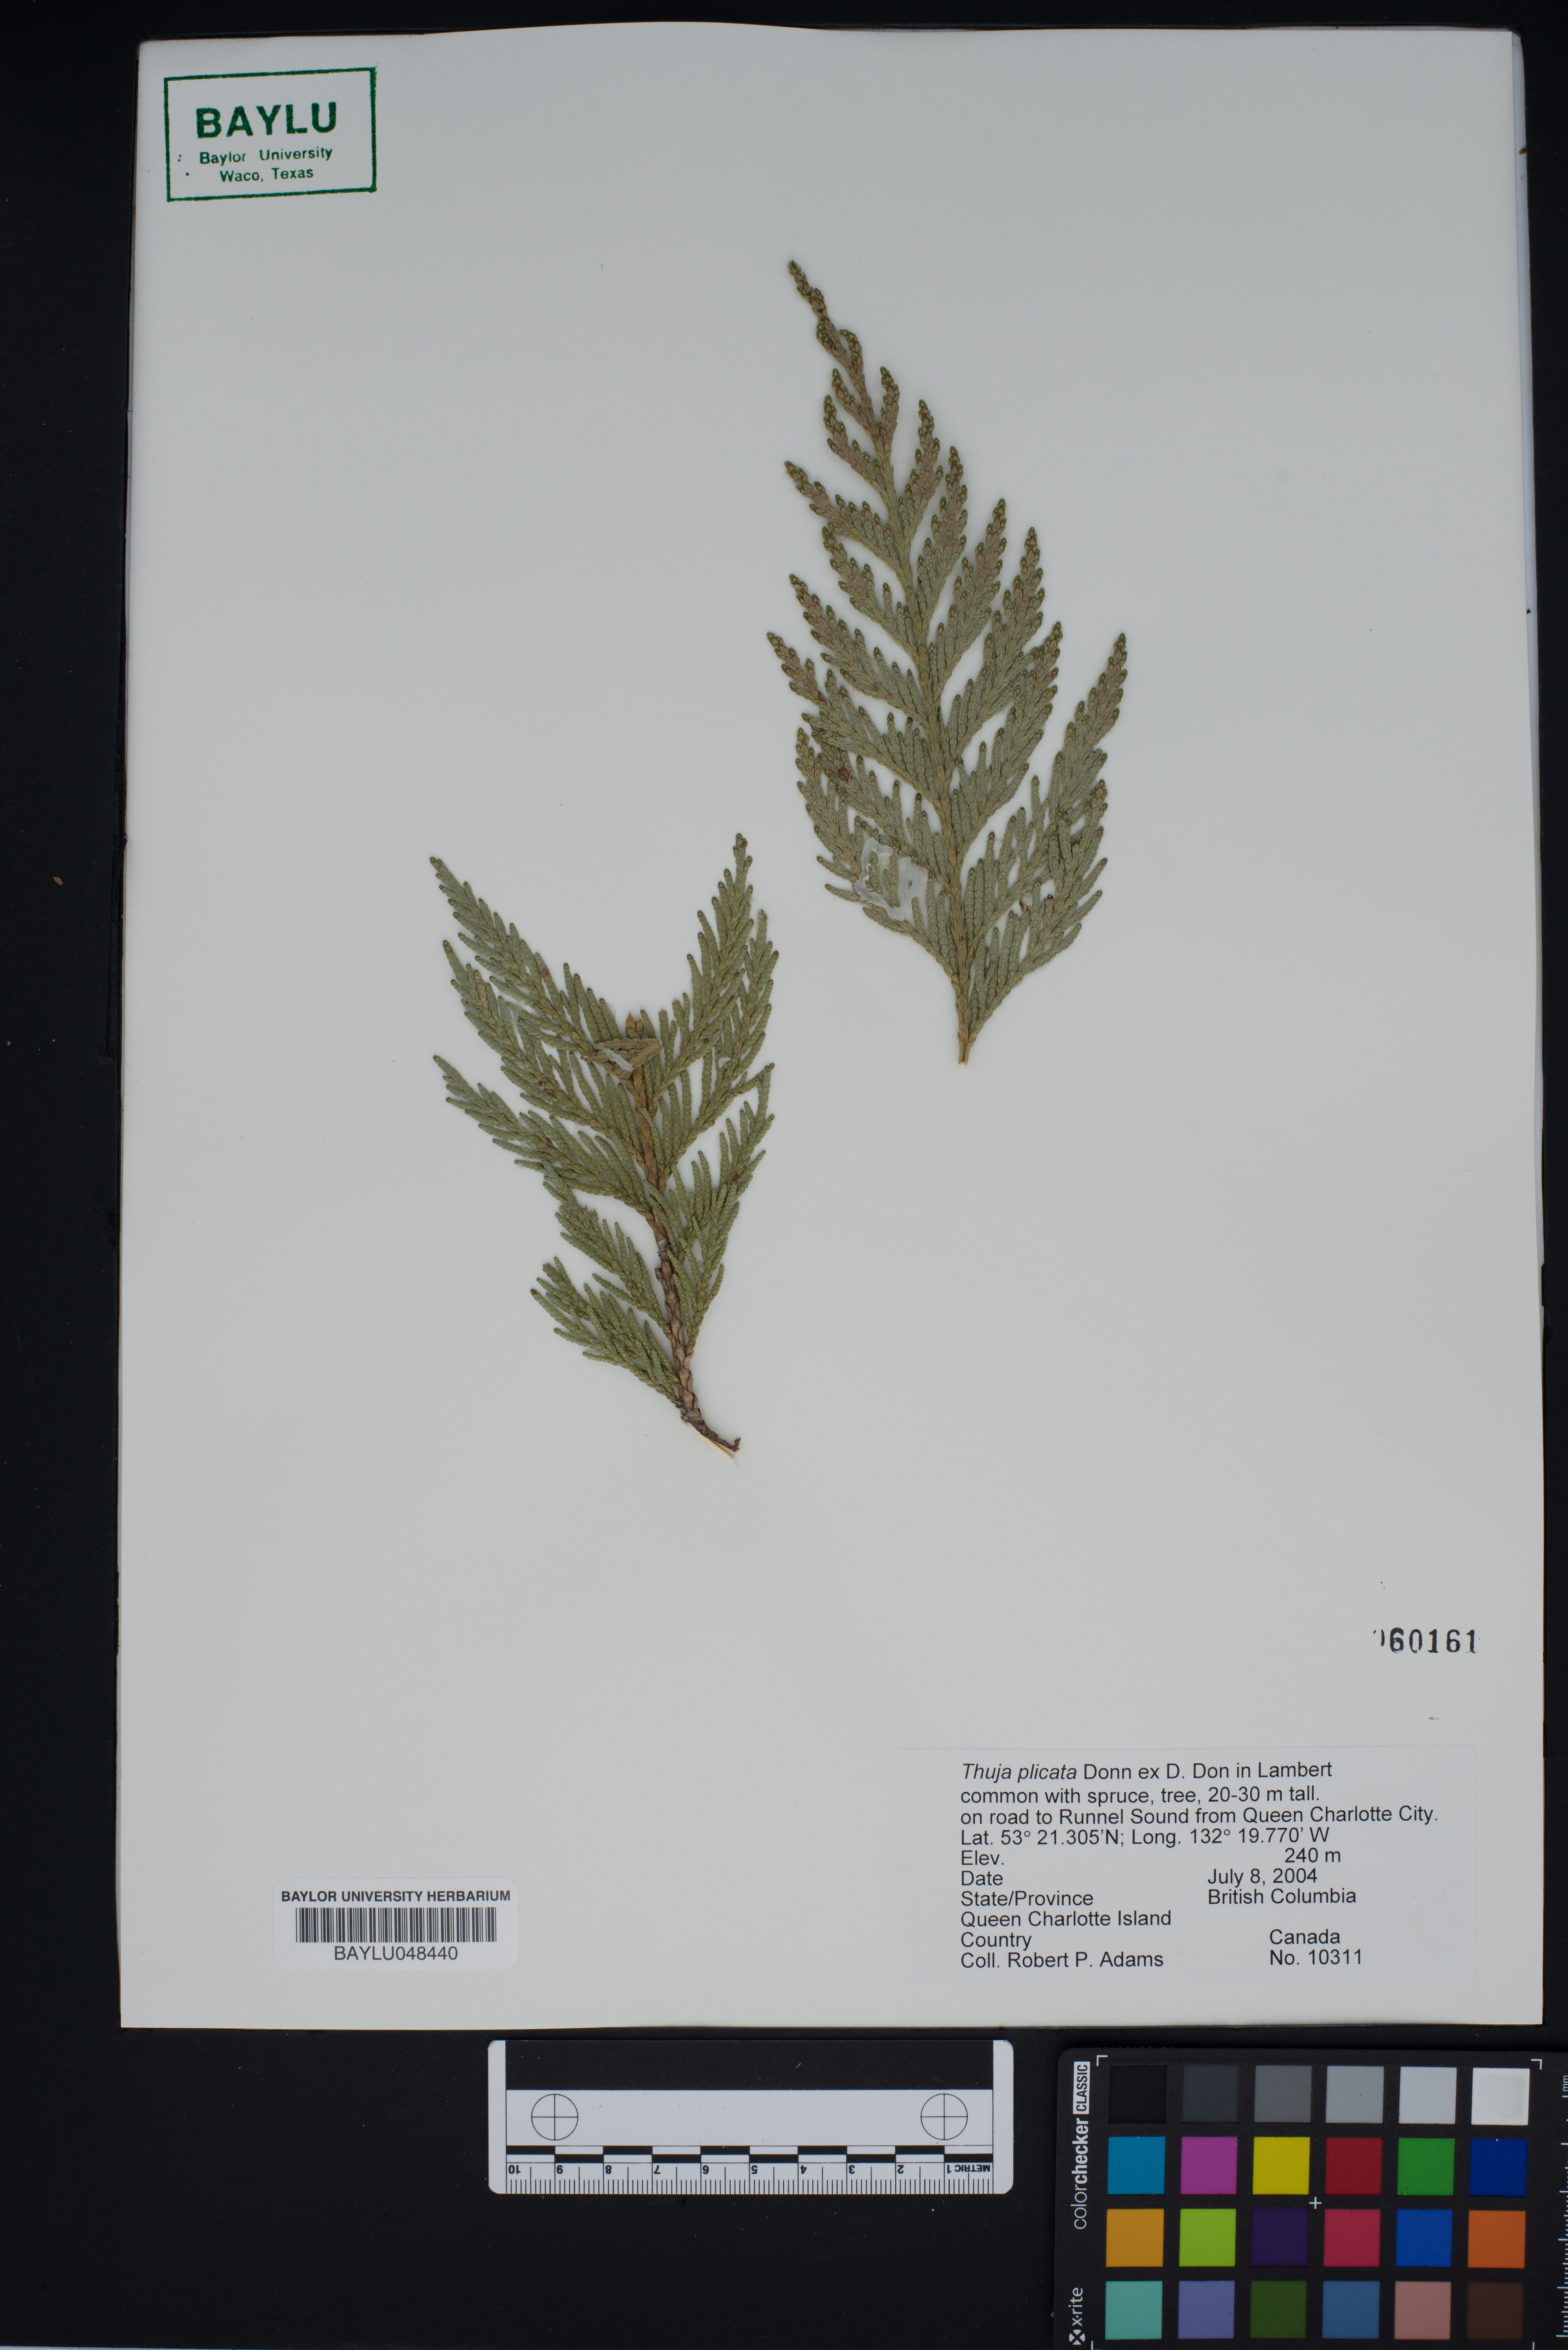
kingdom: Plantae
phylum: Tracheophyta
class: Pinopsida
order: Pinales
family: Cupressaceae
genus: Thuja
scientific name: Thuja plicata
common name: Western red-cedar
